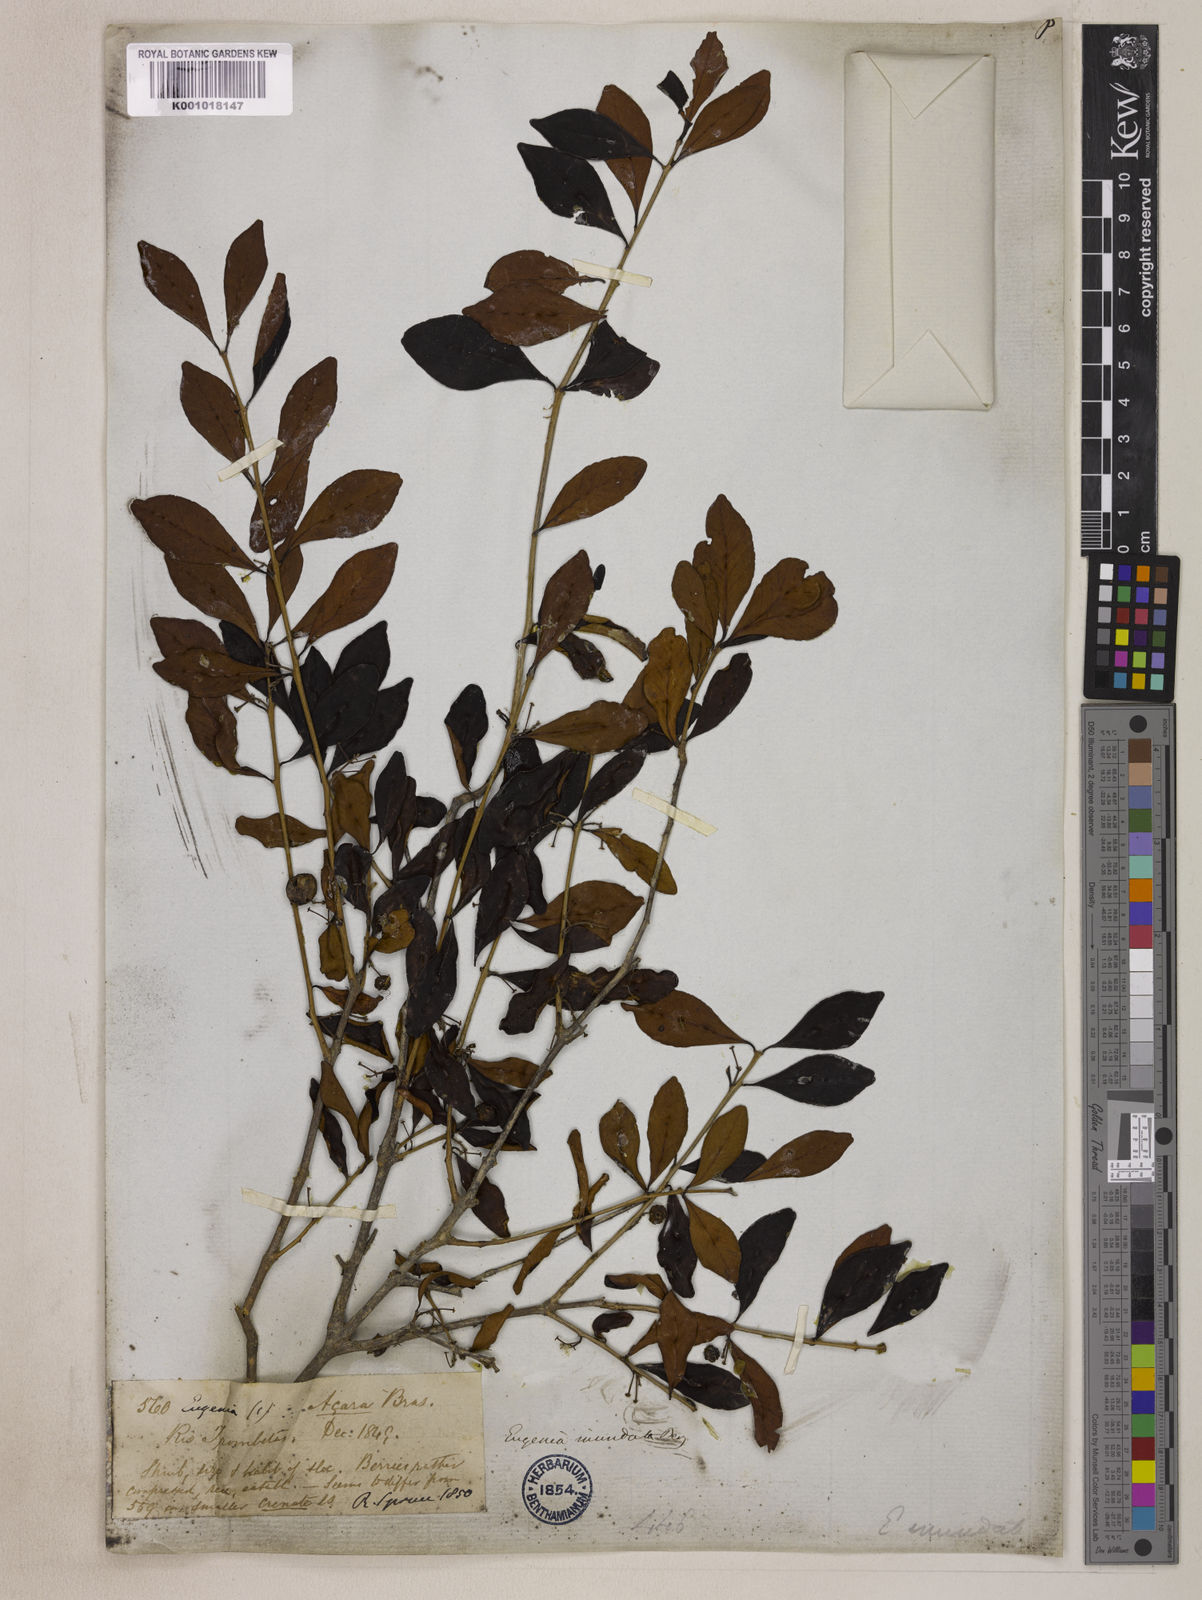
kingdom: Plantae
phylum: Tracheophyta
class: Magnoliopsida
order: Myrtales
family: Myrtaceae
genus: Eugenia
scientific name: Eugenia inundata
